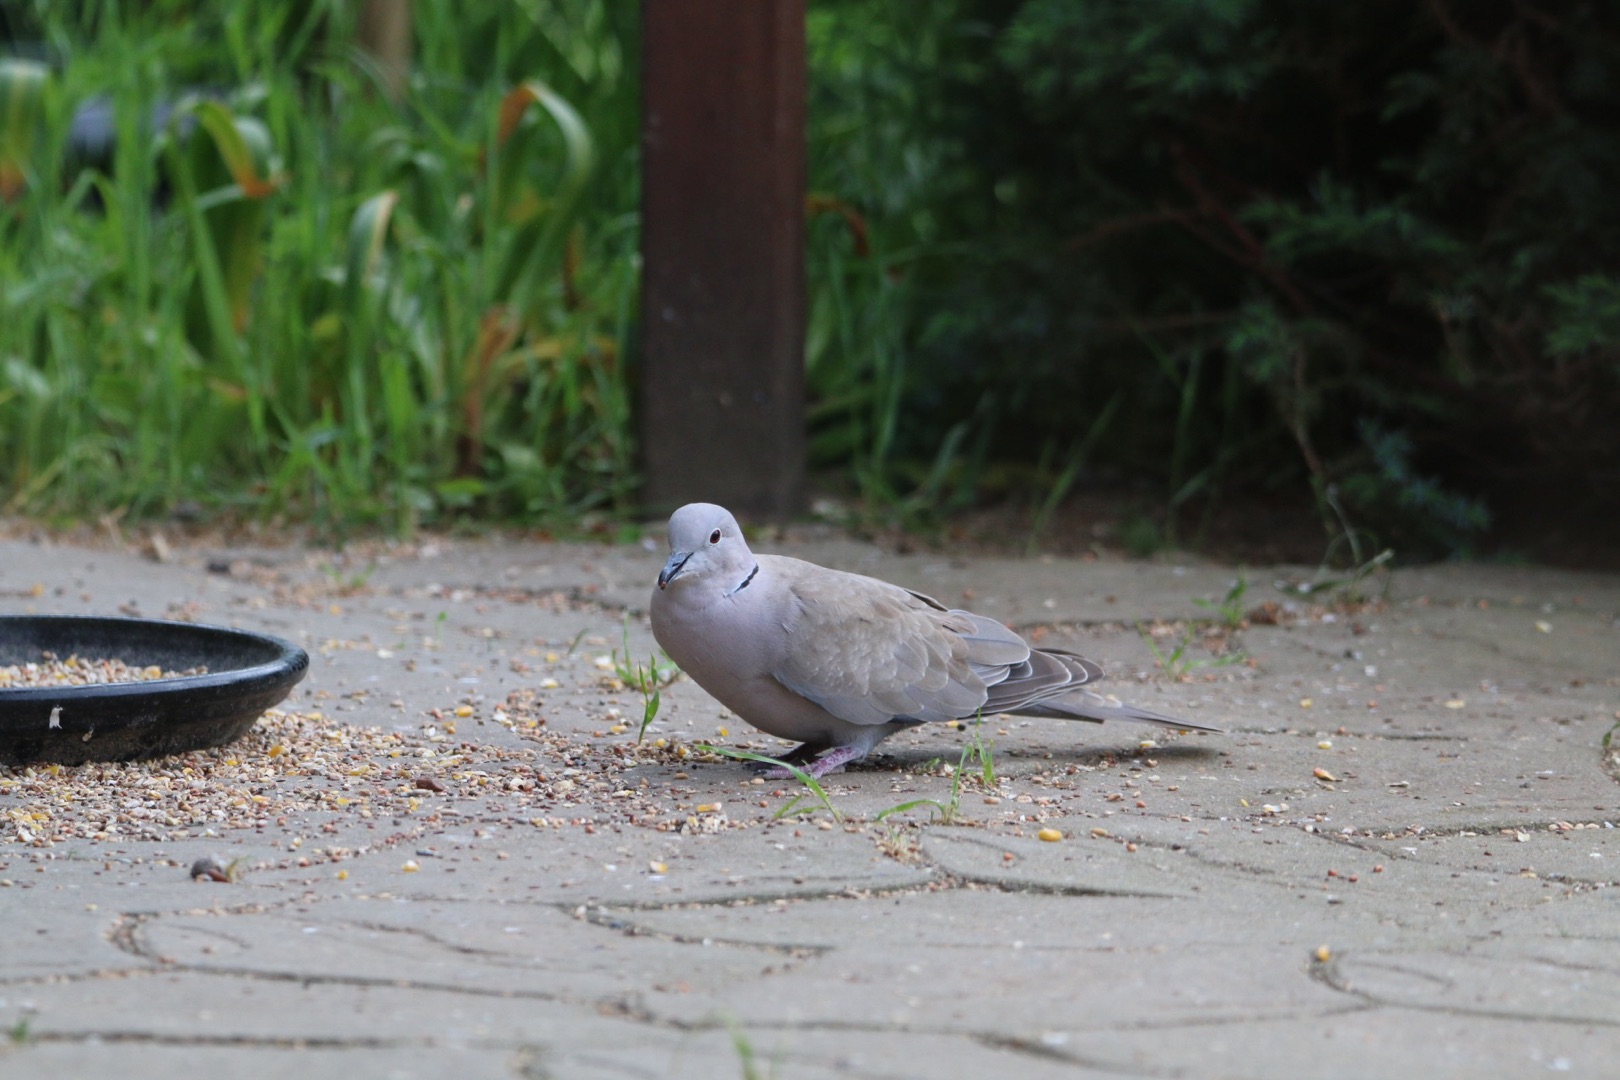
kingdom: Animalia
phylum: Chordata
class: Aves
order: Columbiformes
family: Columbidae
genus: Streptopelia
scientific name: Streptopelia decaocto
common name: Tyrkerdue
